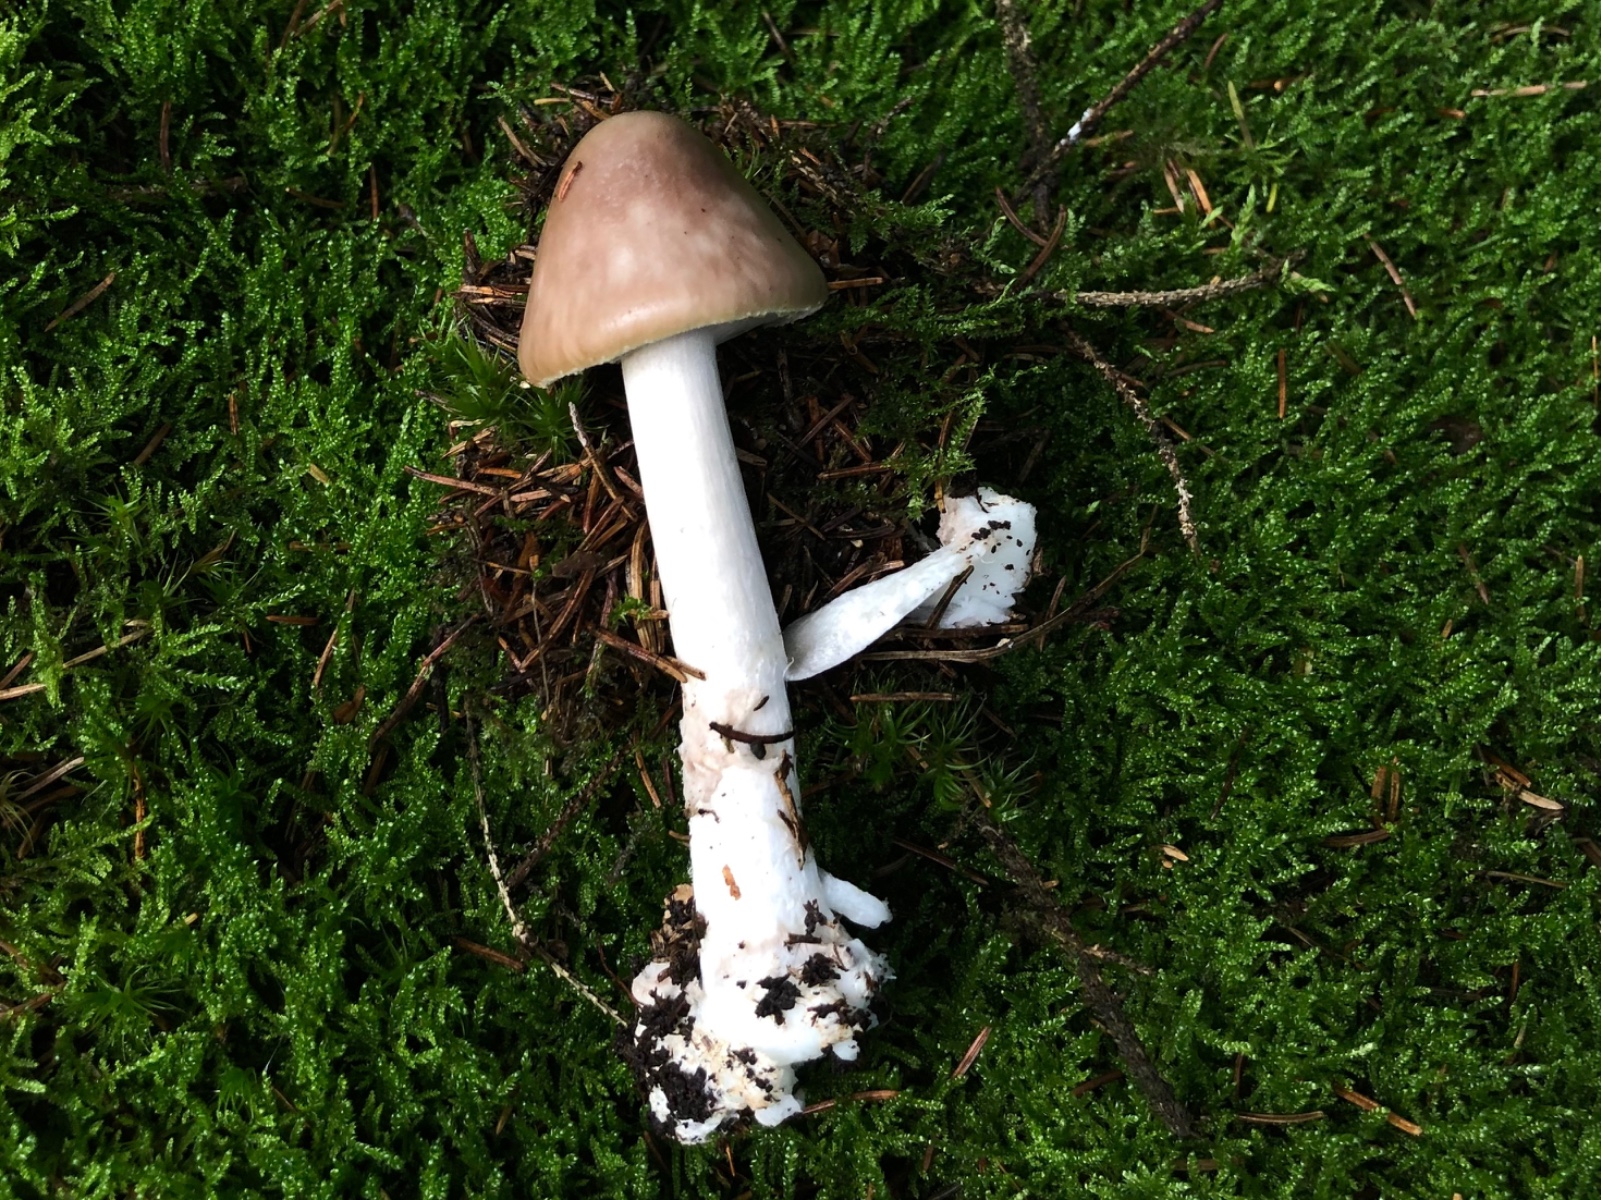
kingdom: Fungi
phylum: Basidiomycota
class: Agaricomycetes
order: Agaricales
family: Amanitaceae
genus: Amanita
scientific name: Amanita porphyria
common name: porfyr-fluesvamp
